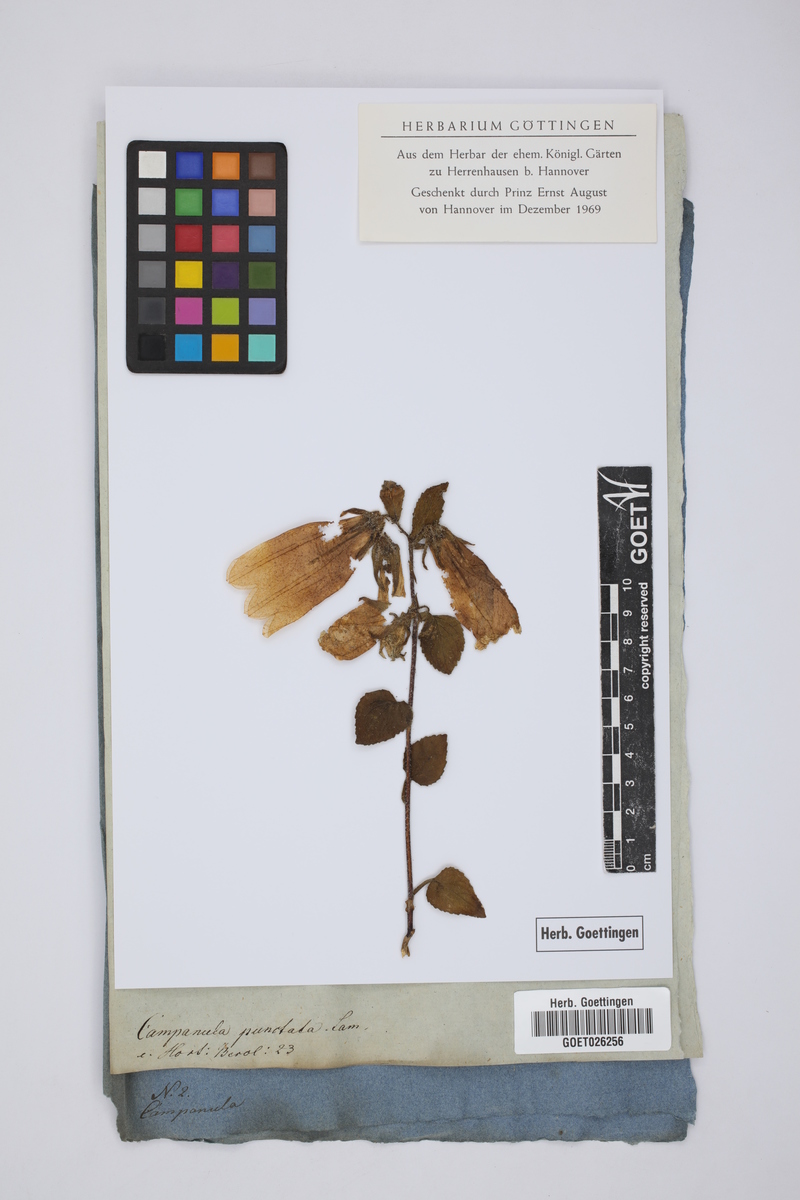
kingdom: Plantae
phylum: Tracheophyta
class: Magnoliopsida
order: Asterales
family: Campanulaceae
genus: Campanula
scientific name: Campanula punctata
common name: Spotted bellflower
